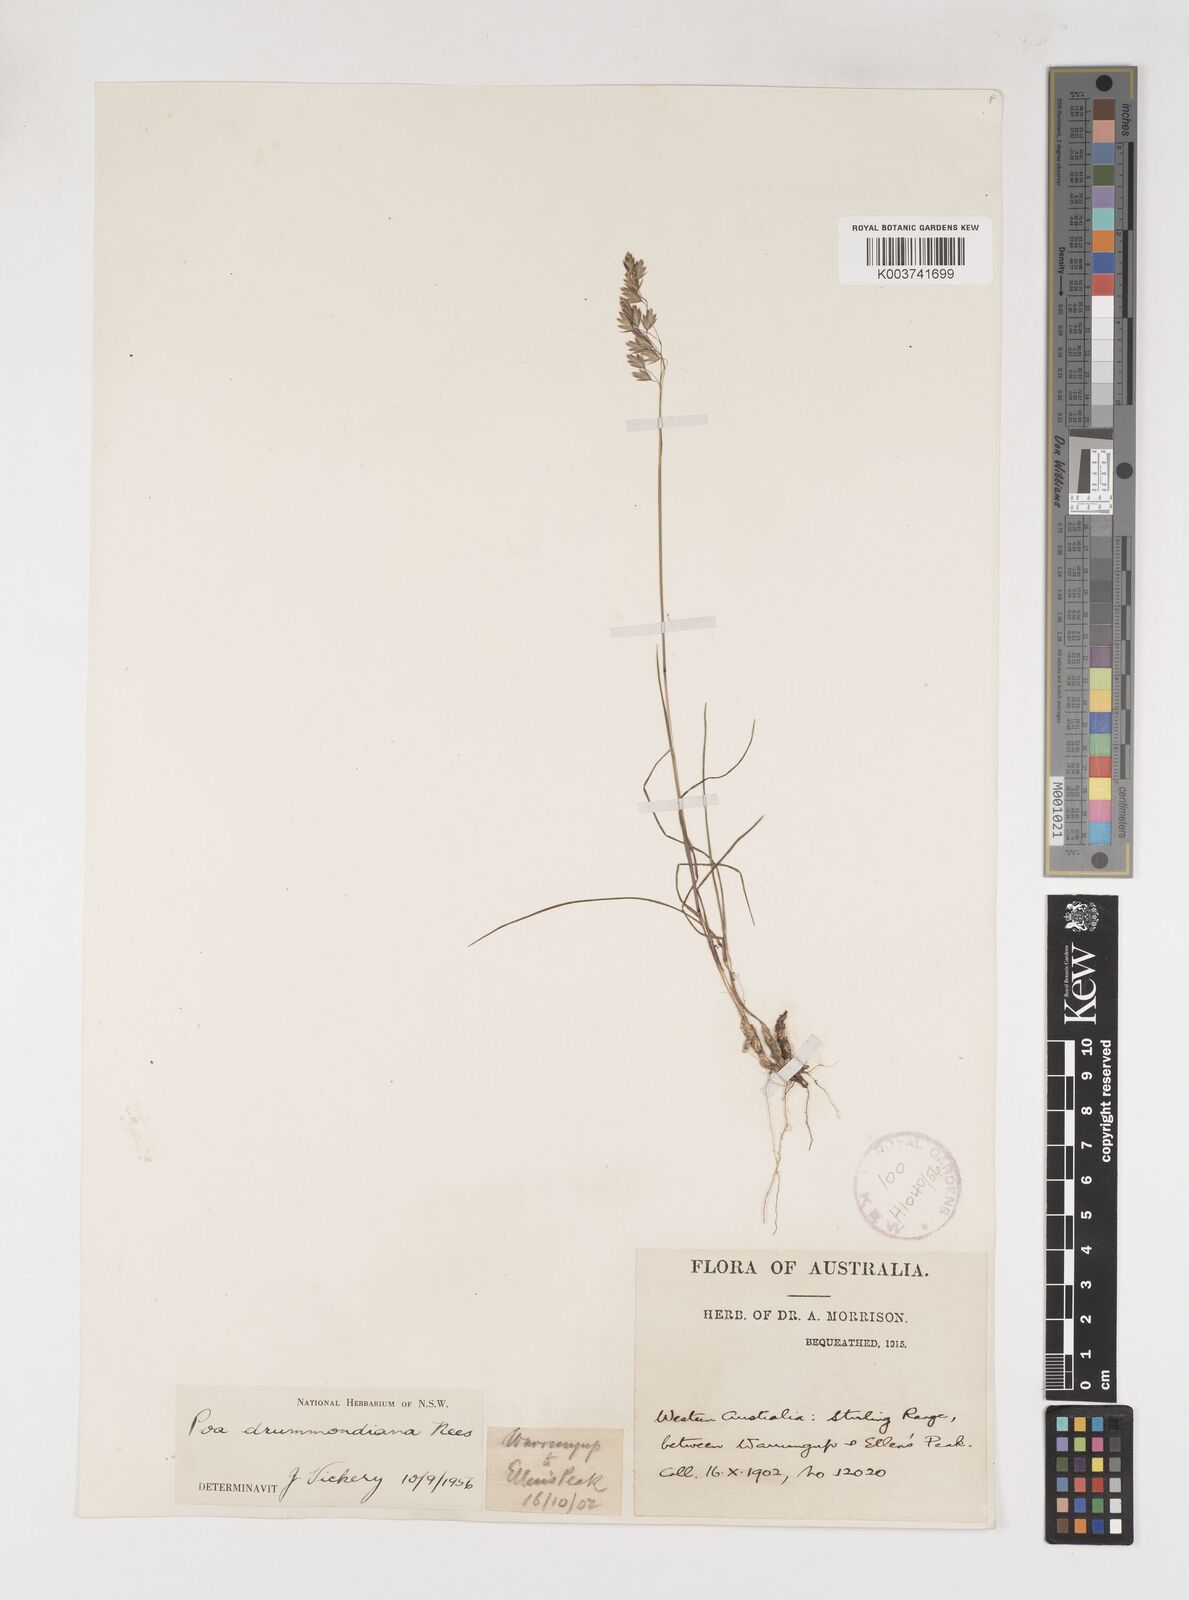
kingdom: Plantae
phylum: Tracheophyta
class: Liliopsida
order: Poales
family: Poaceae
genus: Poa
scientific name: Poa drummondiana
